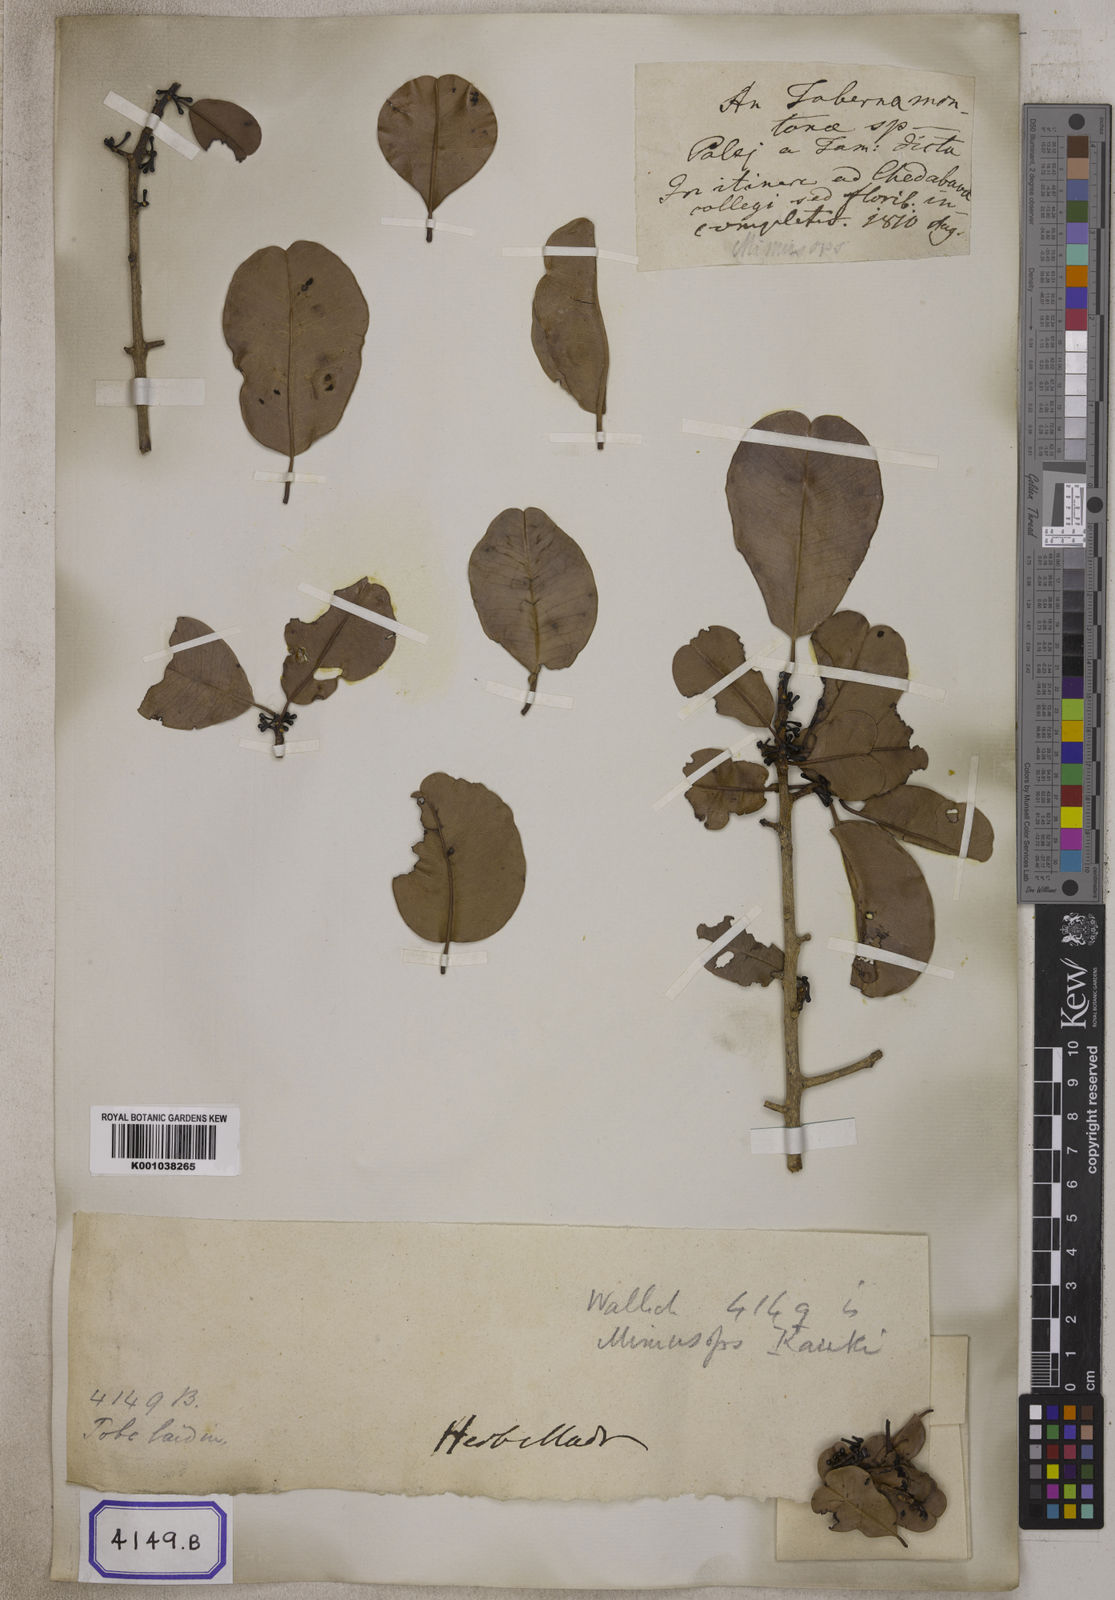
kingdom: Plantae
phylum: Tracheophyta
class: Magnoliopsida
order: Ericales
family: Sapotaceae
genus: Manilkara
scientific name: Manilkara kauki
